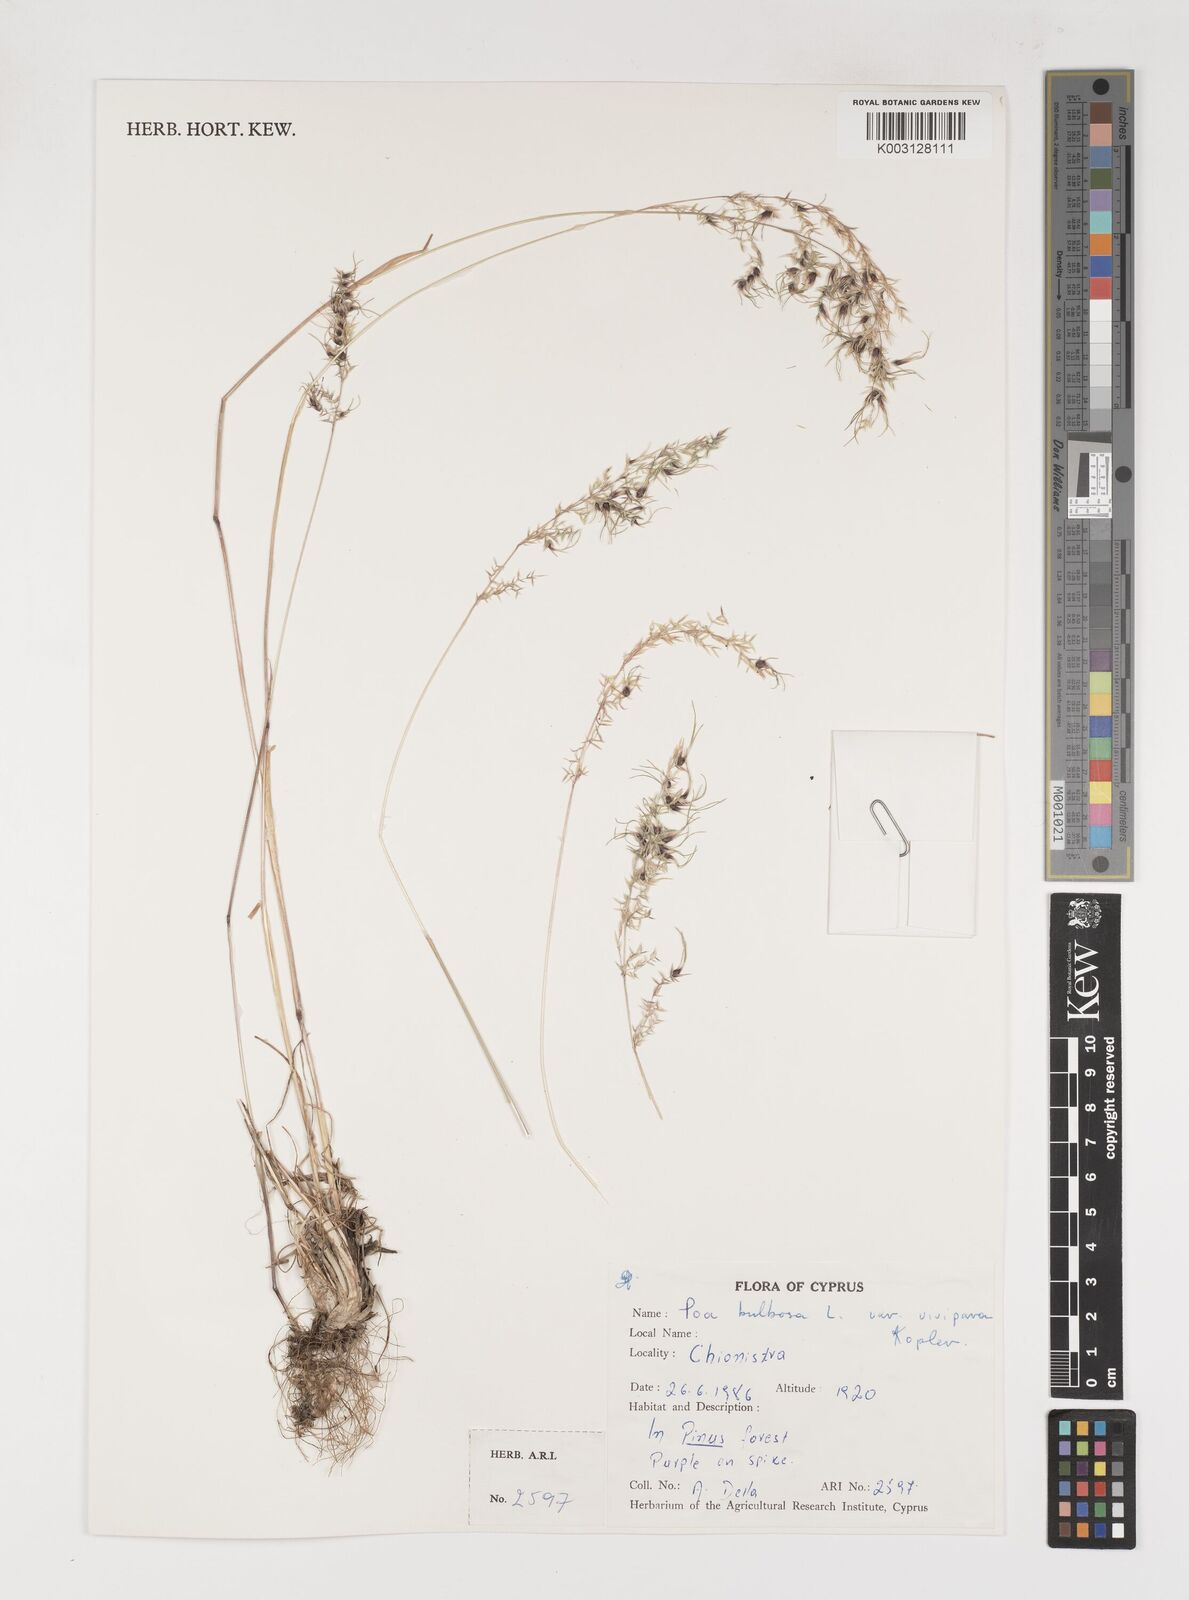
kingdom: Plantae
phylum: Tracheophyta
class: Liliopsida
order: Poales
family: Poaceae
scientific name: Poaceae
